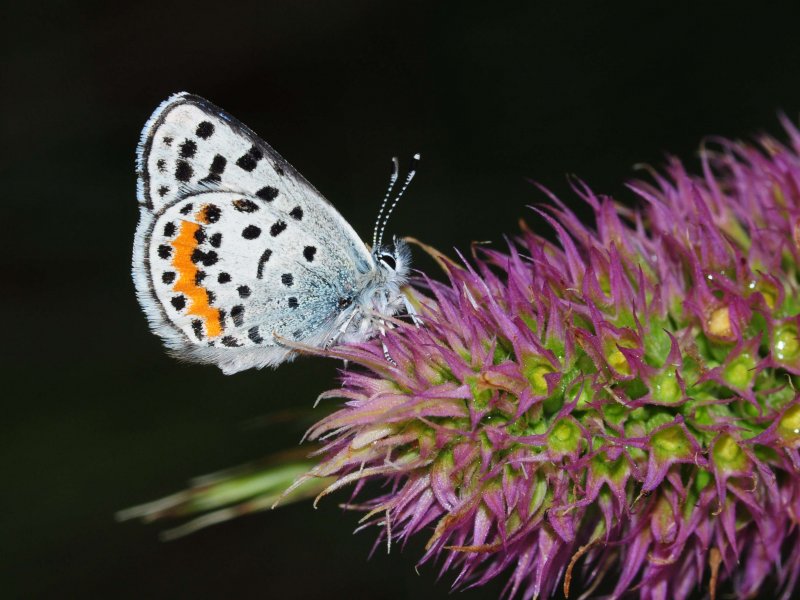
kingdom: Animalia
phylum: Arthropoda
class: Insecta
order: Lepidoptera
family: Lycaenidae
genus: Euphilotes
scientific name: Euphilotes battoides
